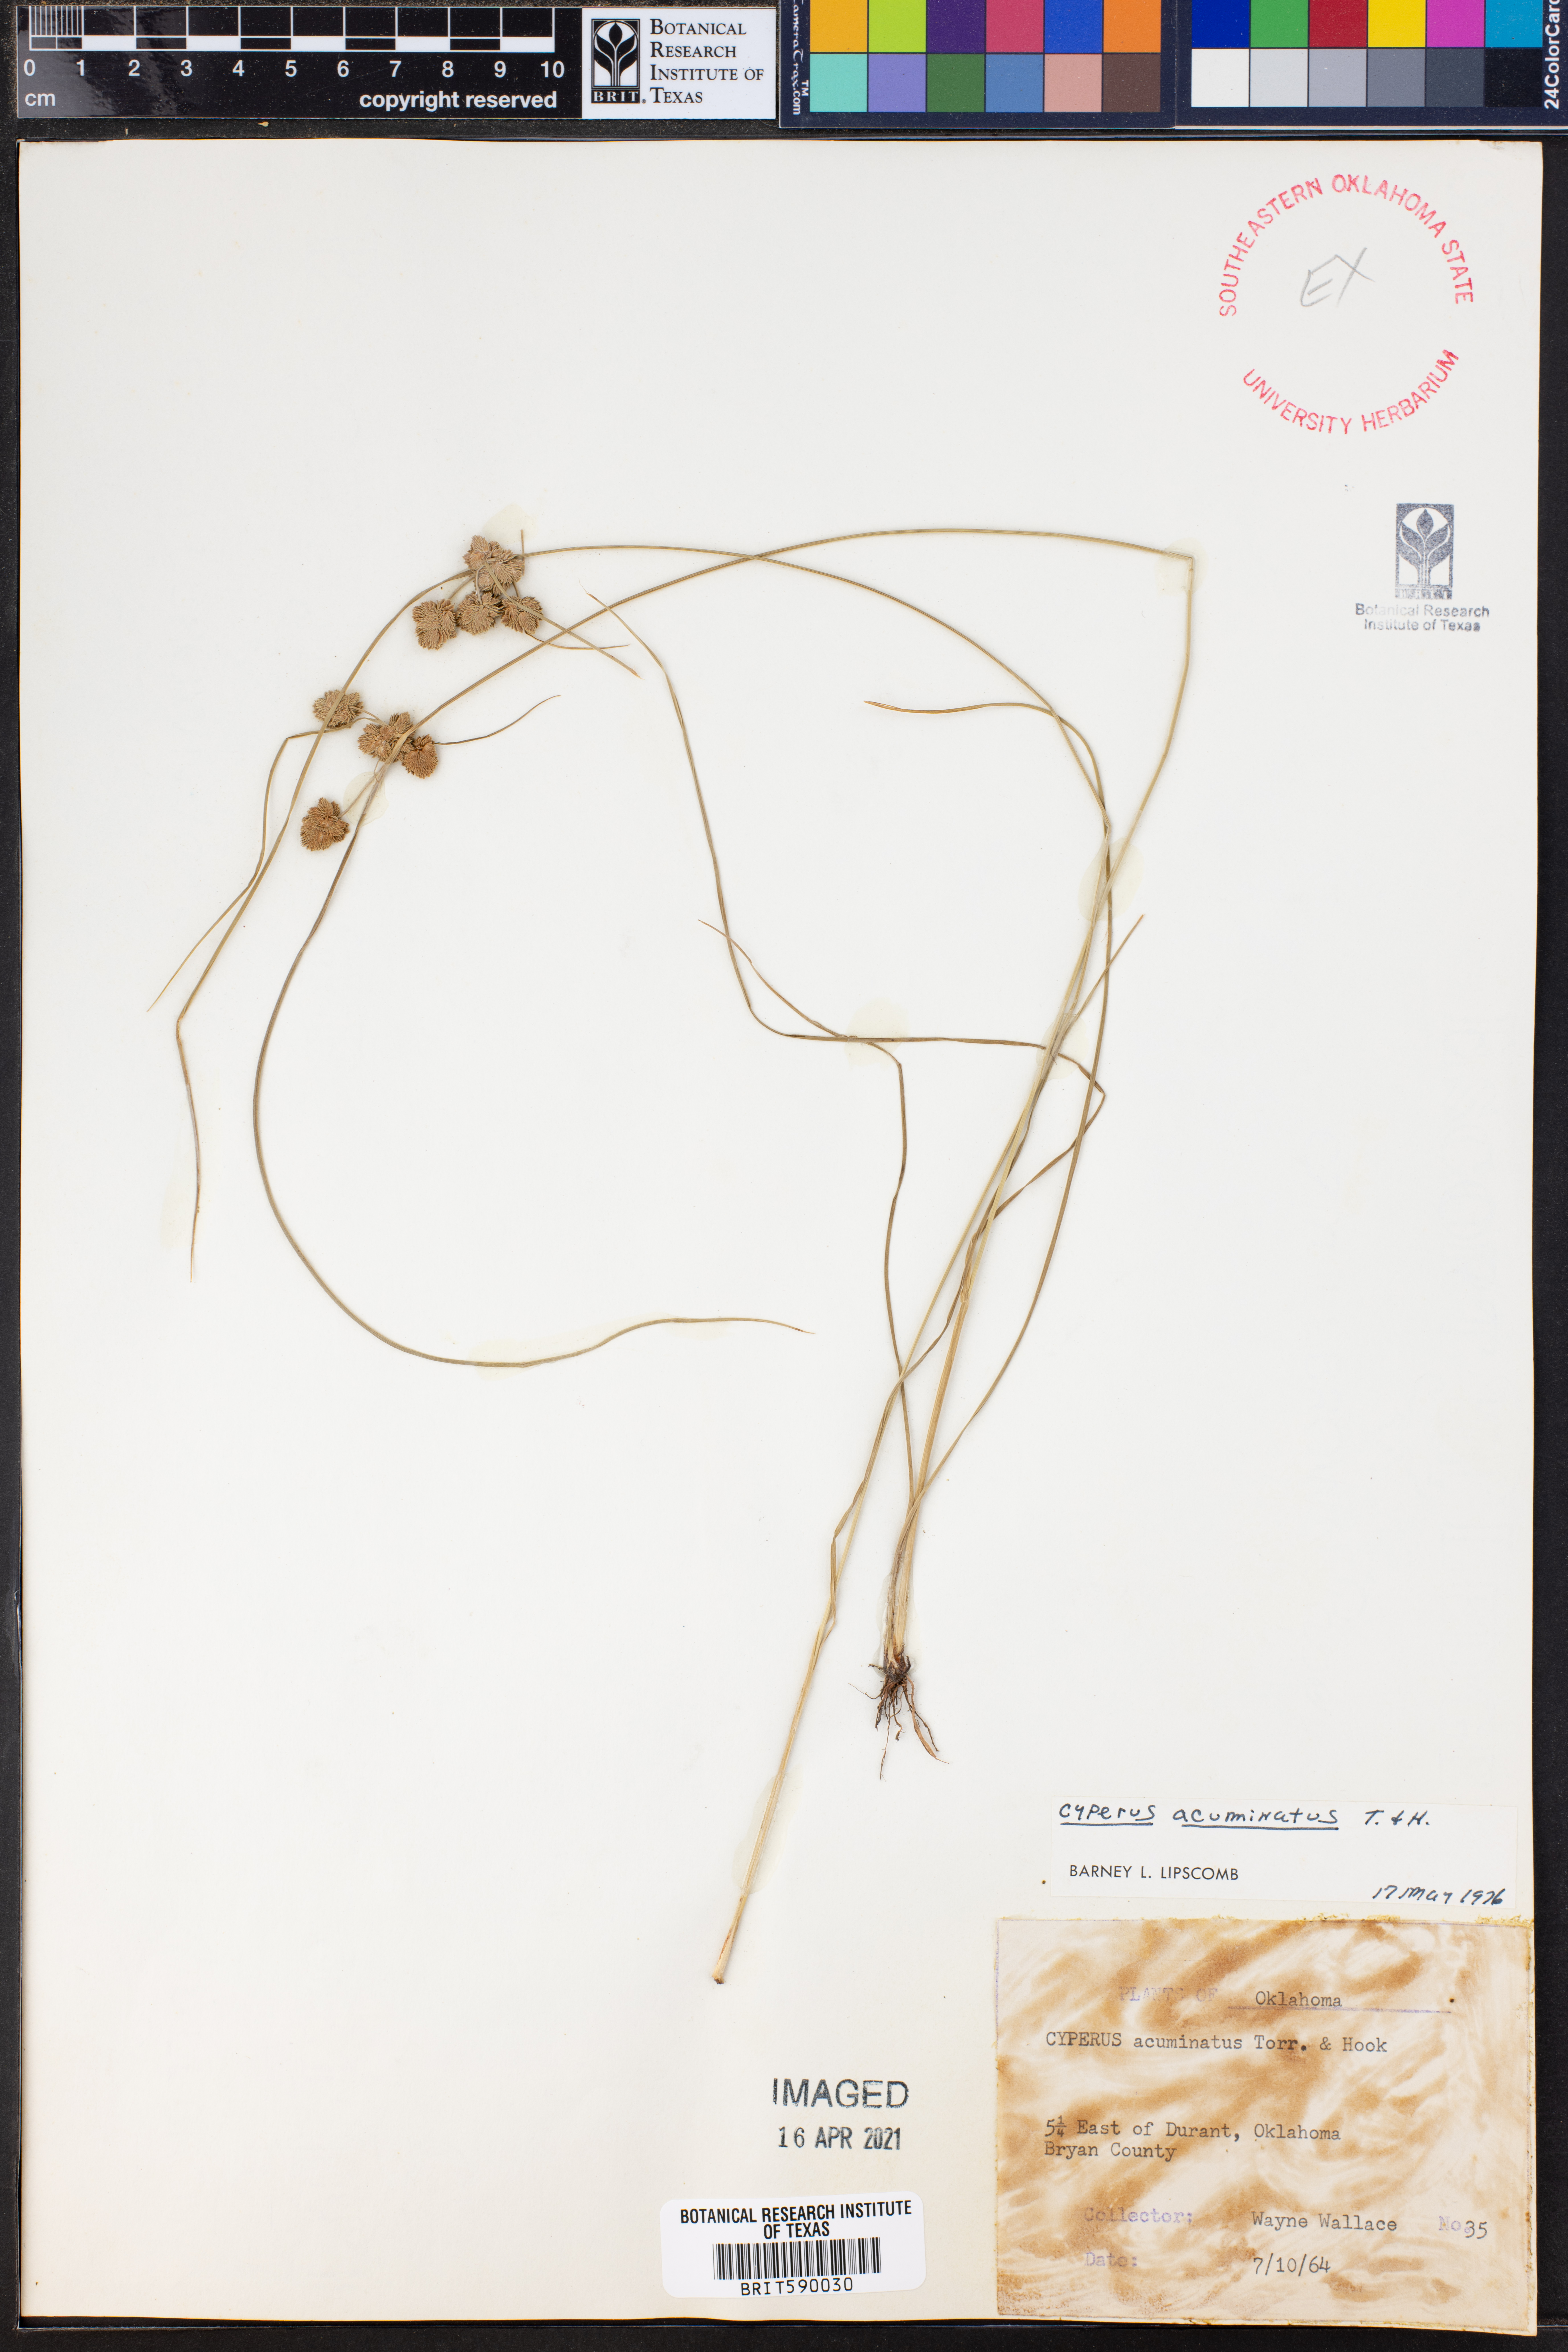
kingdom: Plantae
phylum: Tracheophyta
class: Liliopsida
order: Poales
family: Cyperaceae
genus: Cyperus
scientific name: Cyperus acuminatus
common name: Short-pointed cyperus
